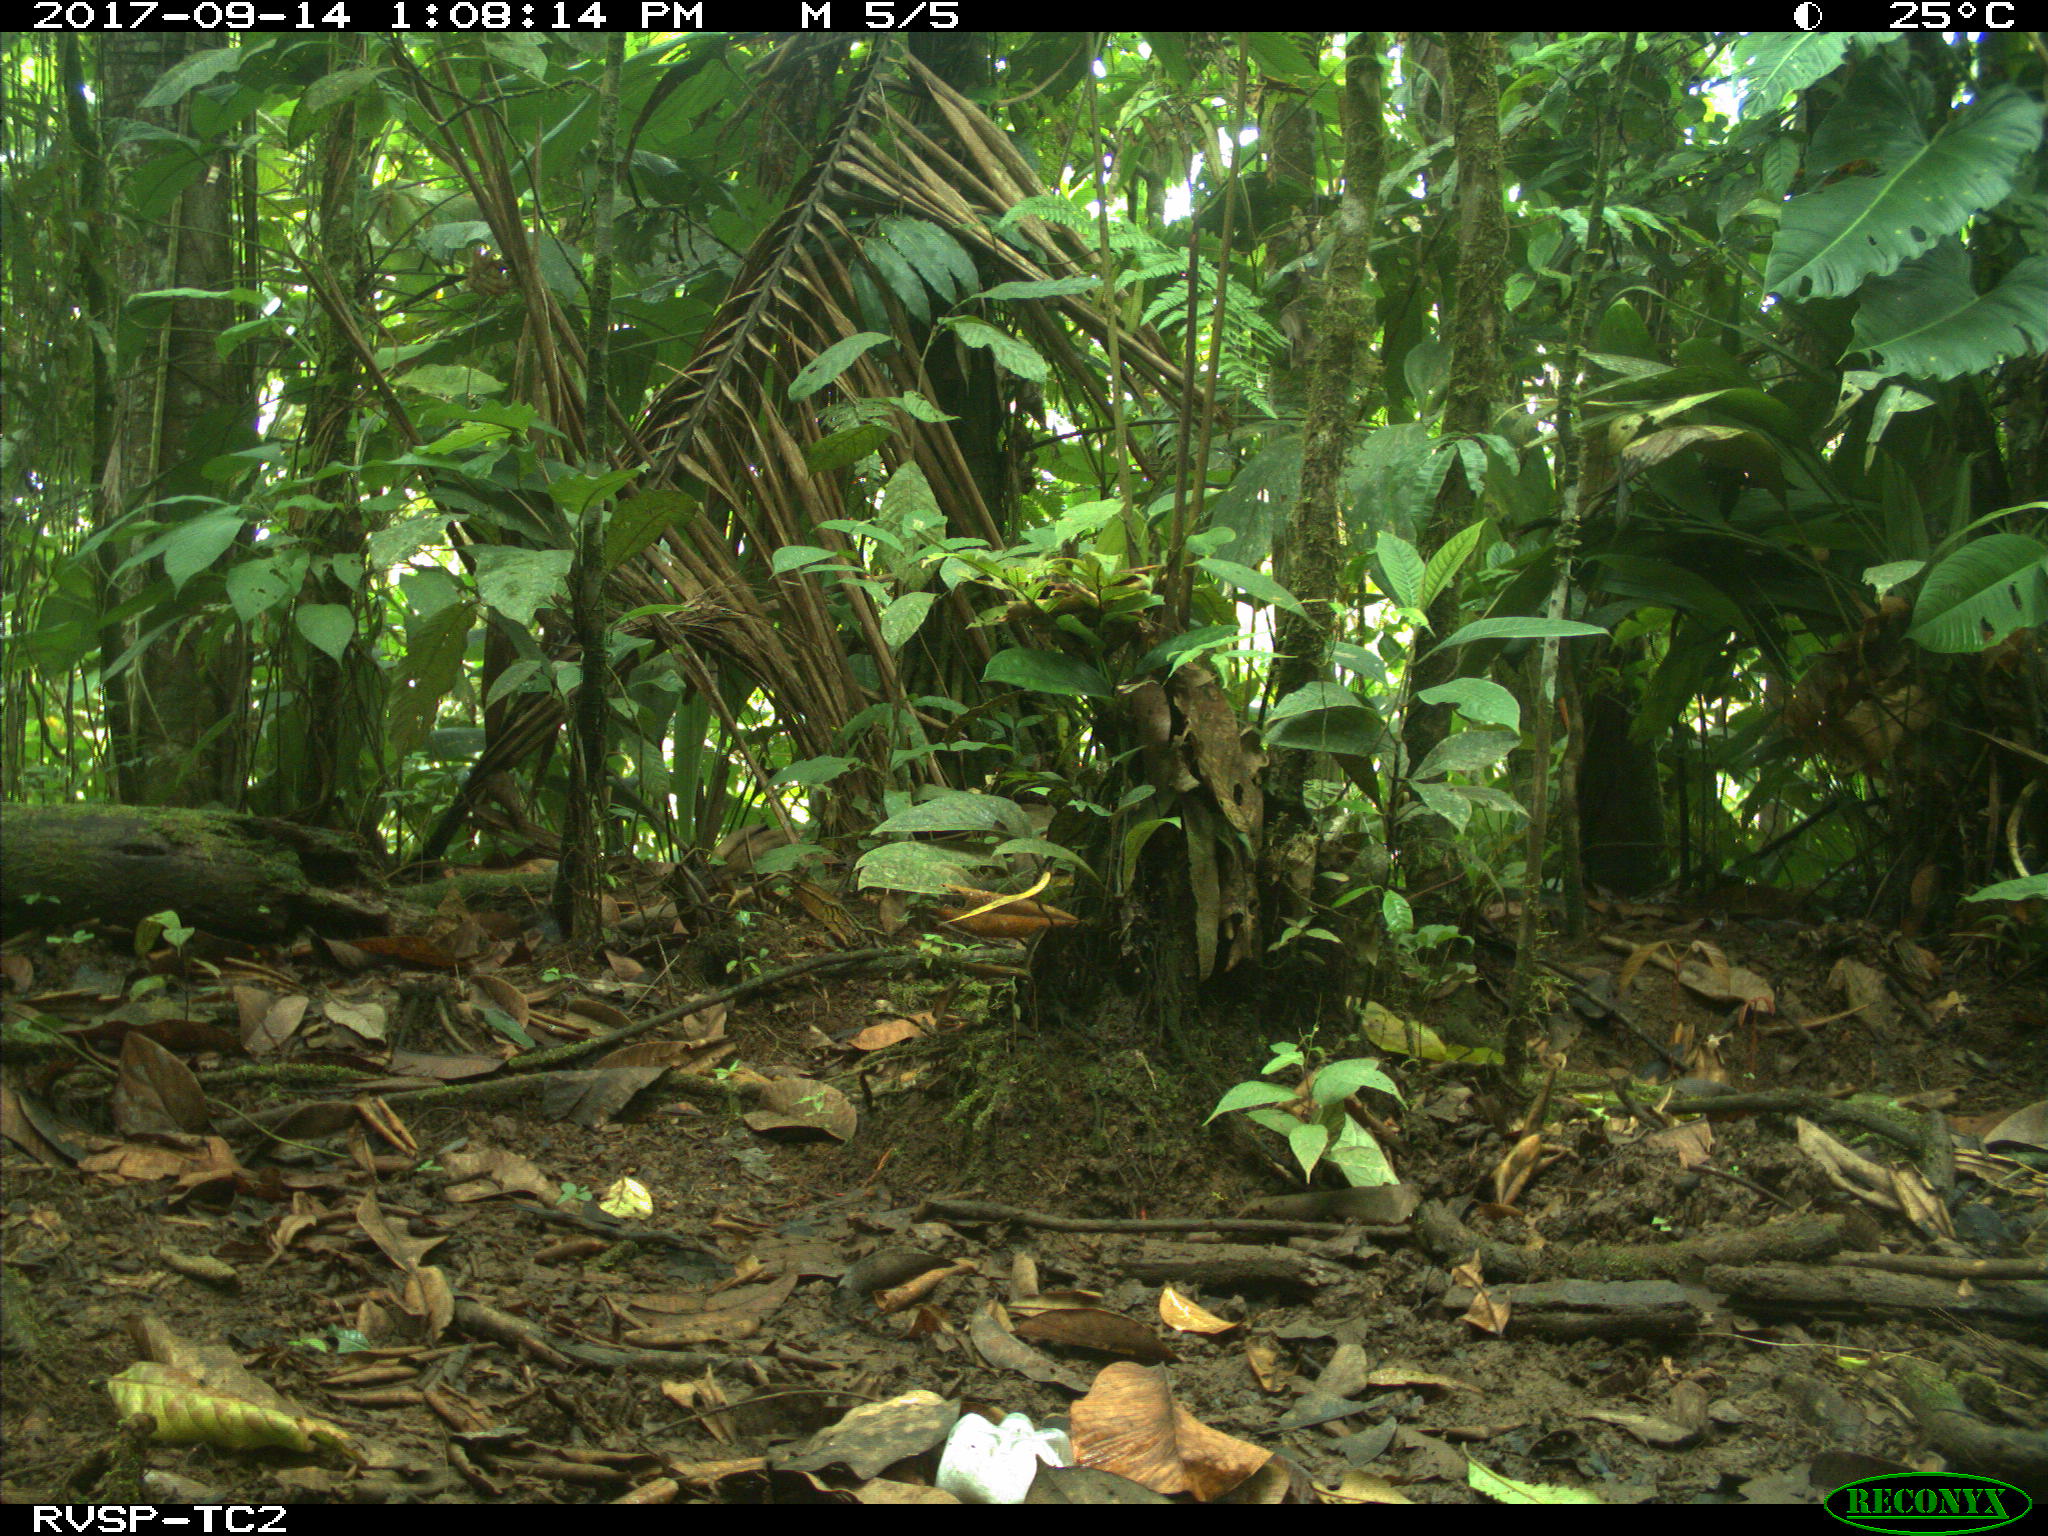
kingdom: Animalia
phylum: Chordata
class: Mammalia
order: Rodentia
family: Dasyproctidae
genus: Dasyprocta
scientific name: Dasyprocta punctata
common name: Central american agouti
